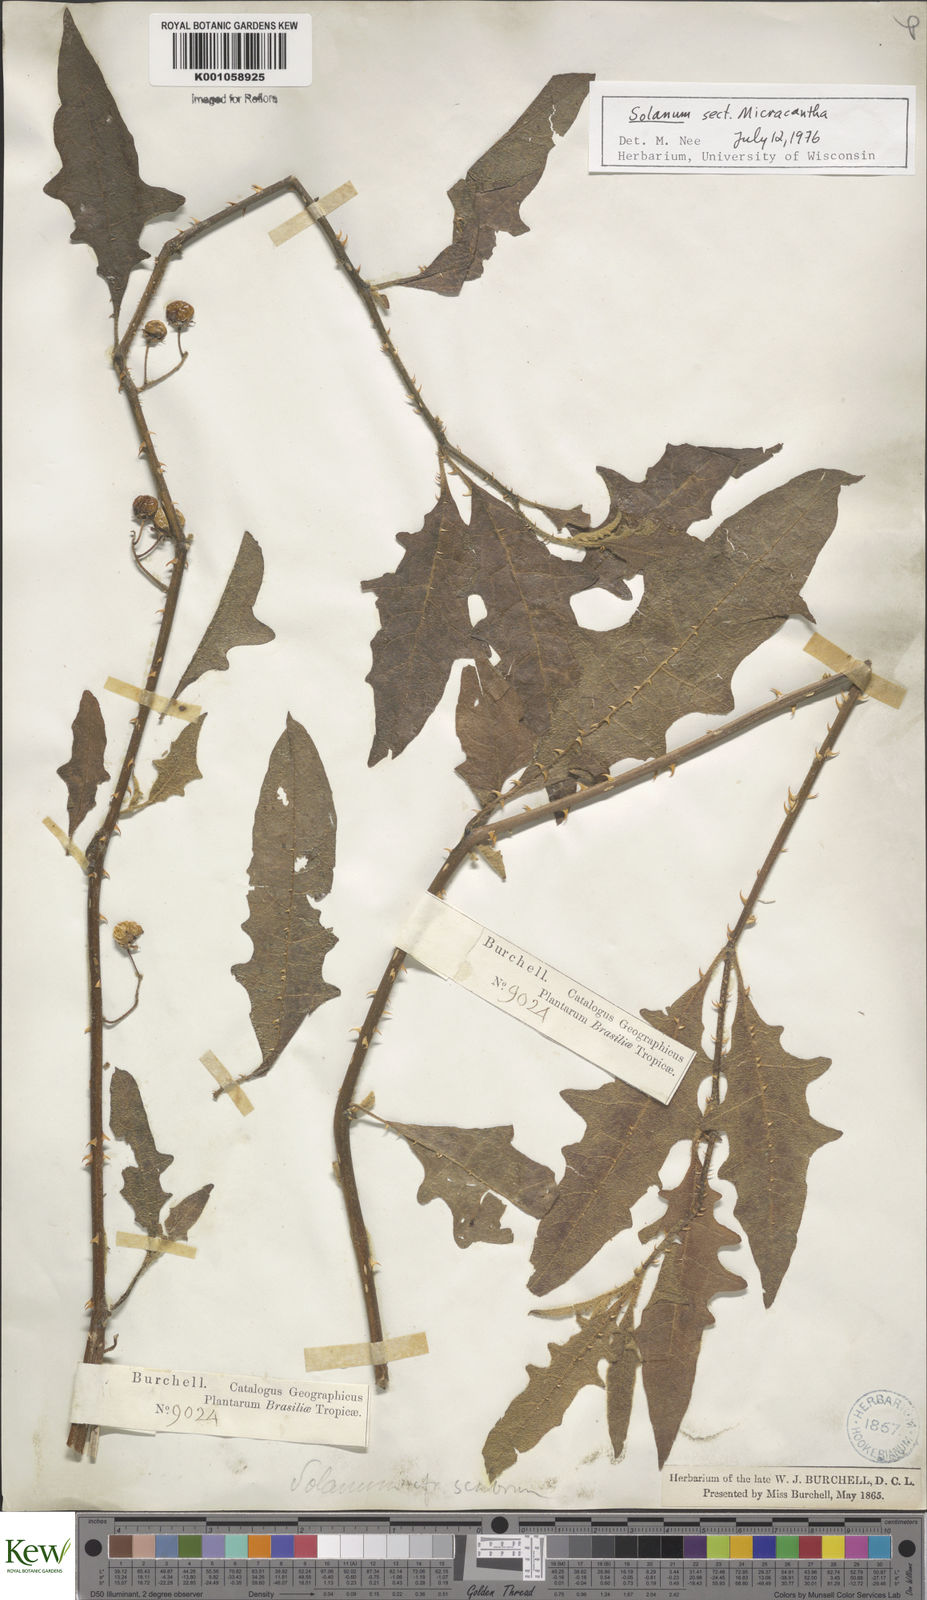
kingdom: Plantae
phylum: Tracheophyta
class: Magnoliopsida
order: Solanales
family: Solanaceae
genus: Solanum
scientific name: Solanum
